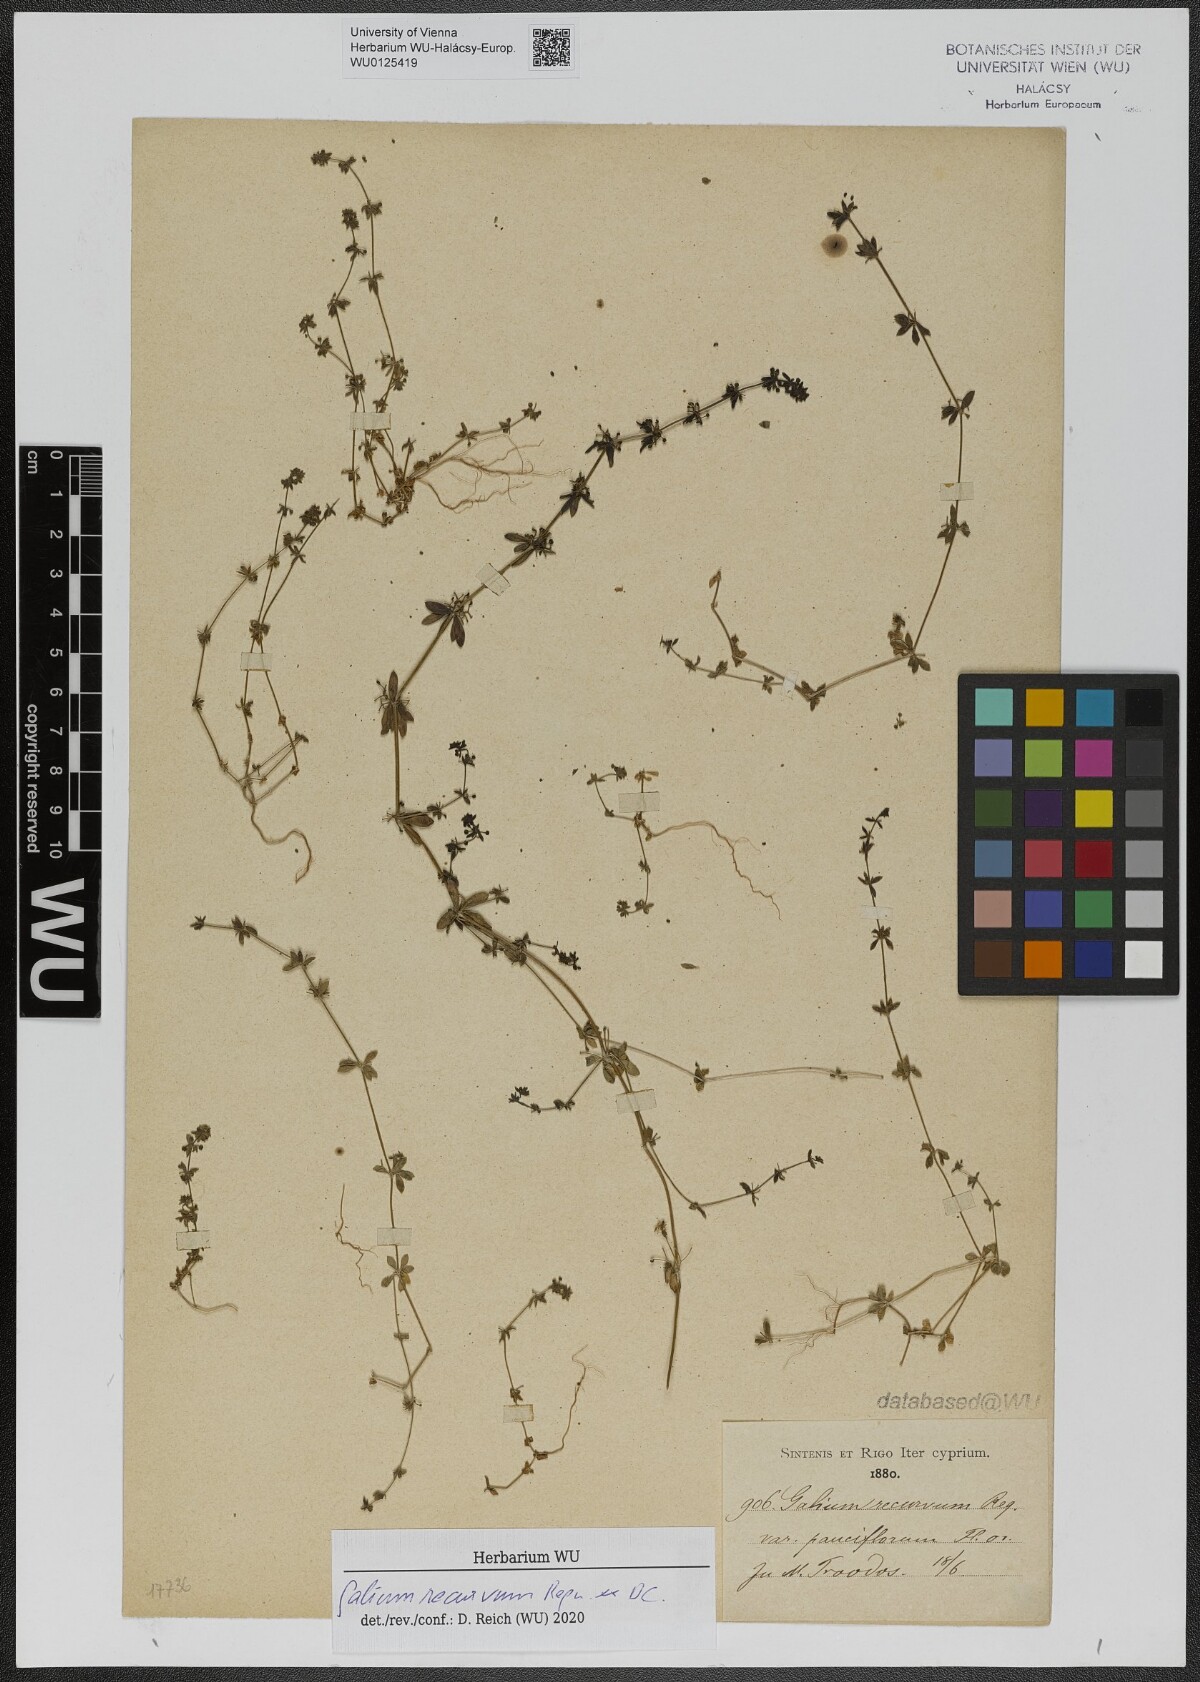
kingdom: Plantae
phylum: Tracheophyta
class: Magnoliopsida
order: Gentianales
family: Rubiaceae
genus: Galium
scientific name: Galium caminianum
